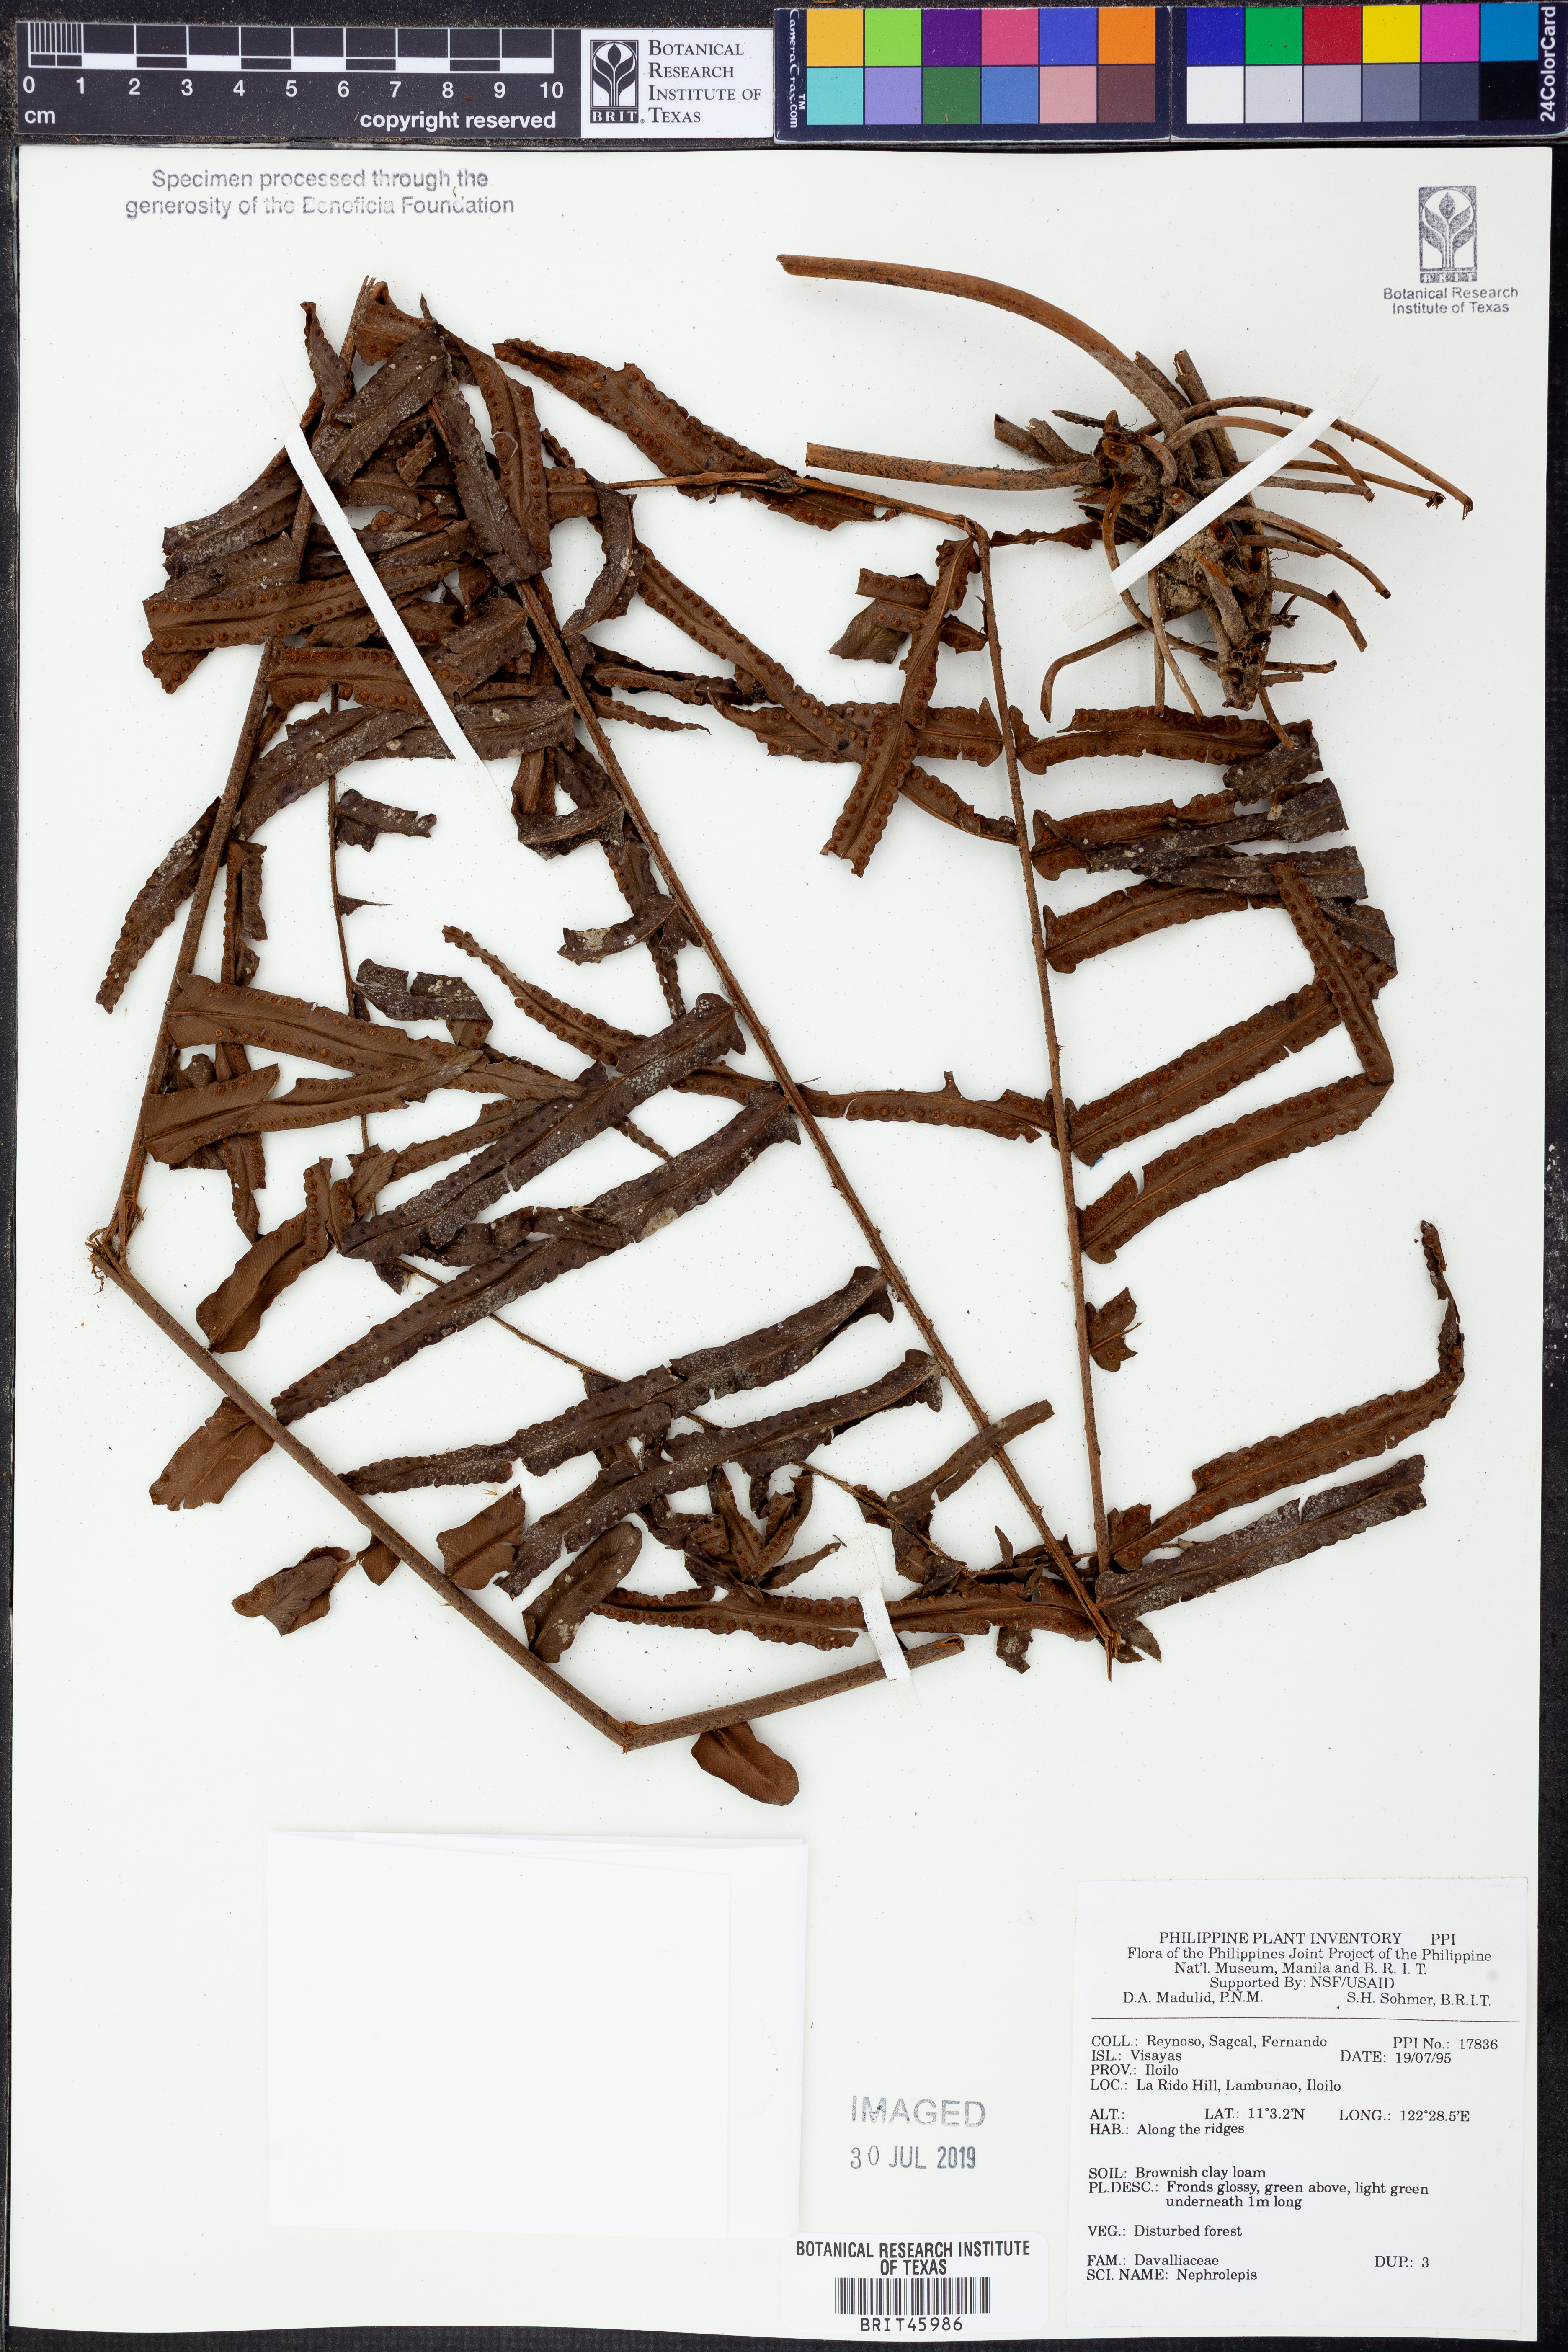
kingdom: Plantae
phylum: Tracheophyta
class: Polypodiopsida
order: Polypodiales
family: Nephrolepidaceae
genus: Nephrolepis
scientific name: Nephrolepis
